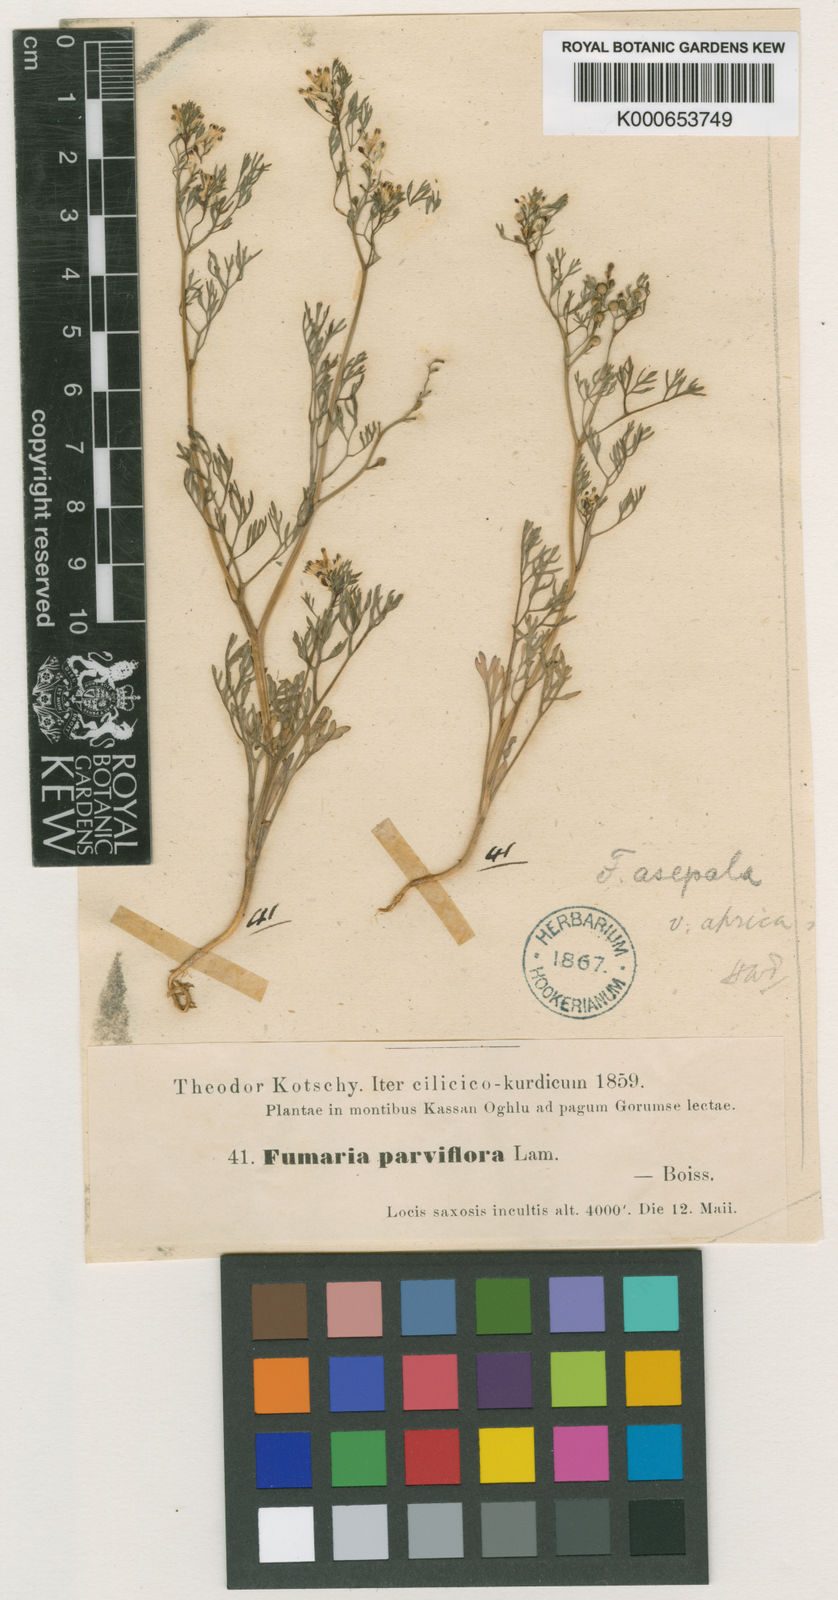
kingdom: Plantae
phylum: Tracheophyta
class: Magnoliopsida
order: Ranunculales
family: Papaveraceae
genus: Fumaria
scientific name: Fumaria asepala
